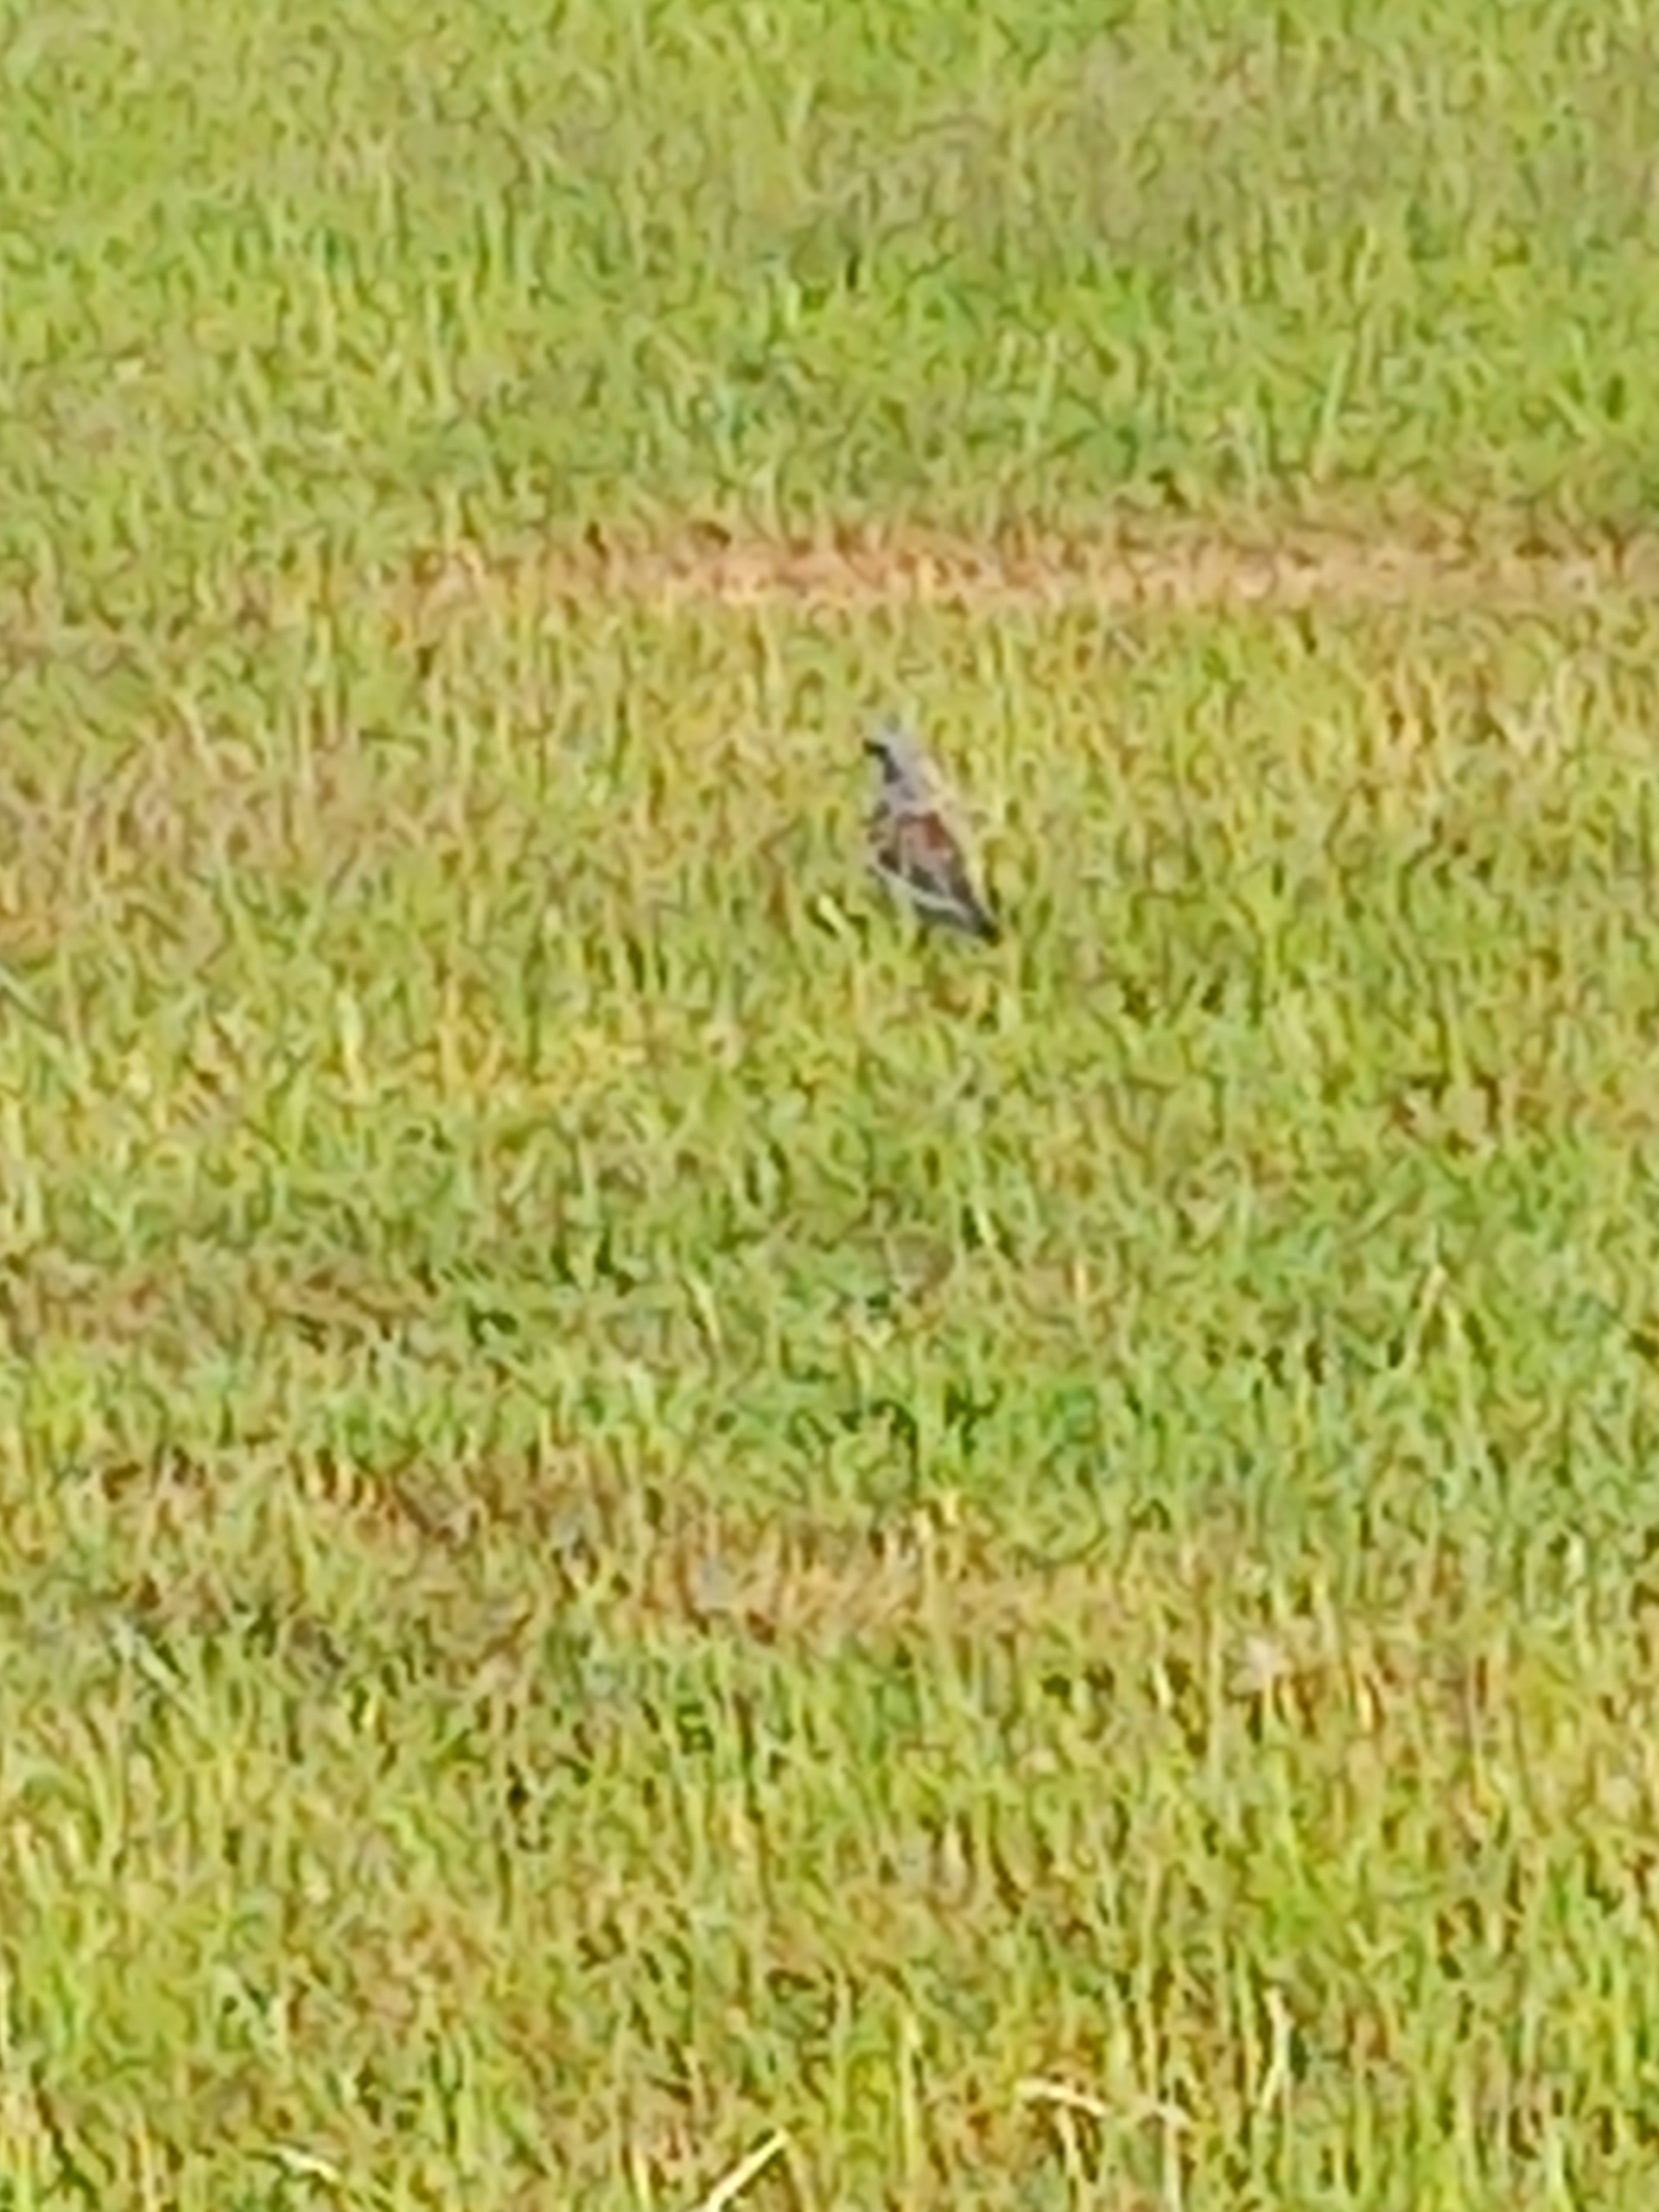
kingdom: Animalia
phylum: Chordata
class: Aves
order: Passeriformes
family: Turdidae
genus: Turdus
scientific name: Turdus pilaris
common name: Sjagger
